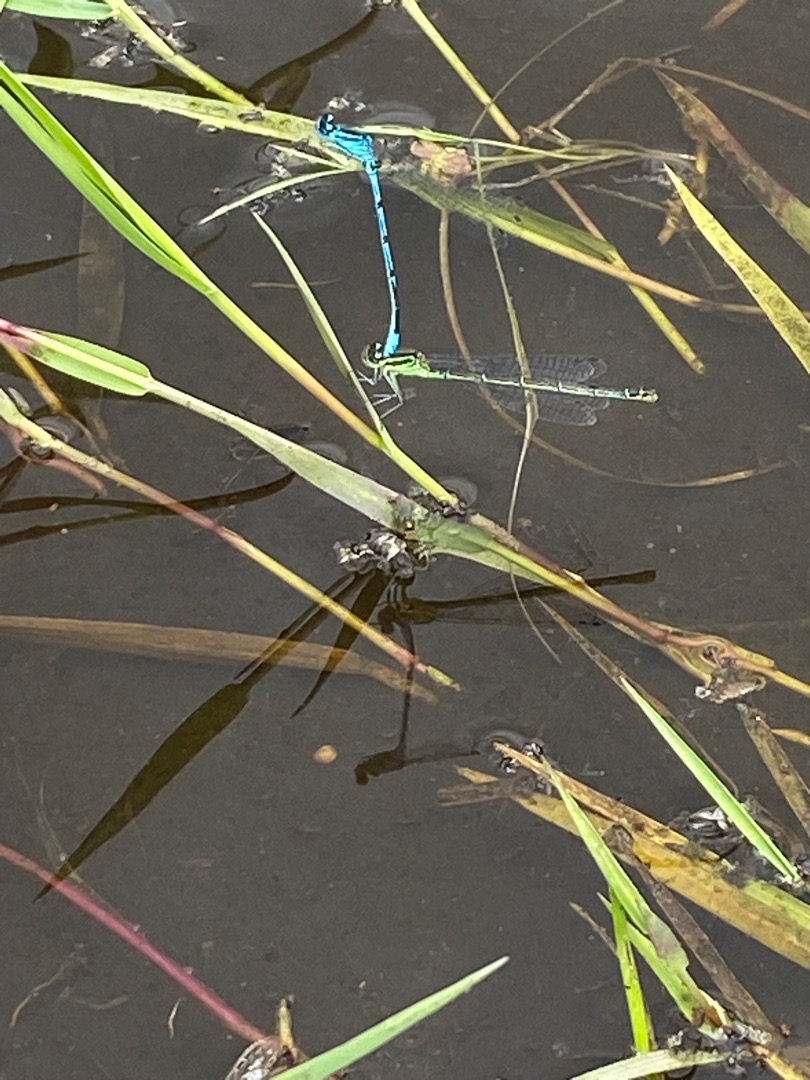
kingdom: Animalia
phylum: Arthropoda
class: Insecta
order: Odonata
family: Coenagrionidae
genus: Coenagrion
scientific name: Coenagrion puella
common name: Hestesko-vandnymfe
